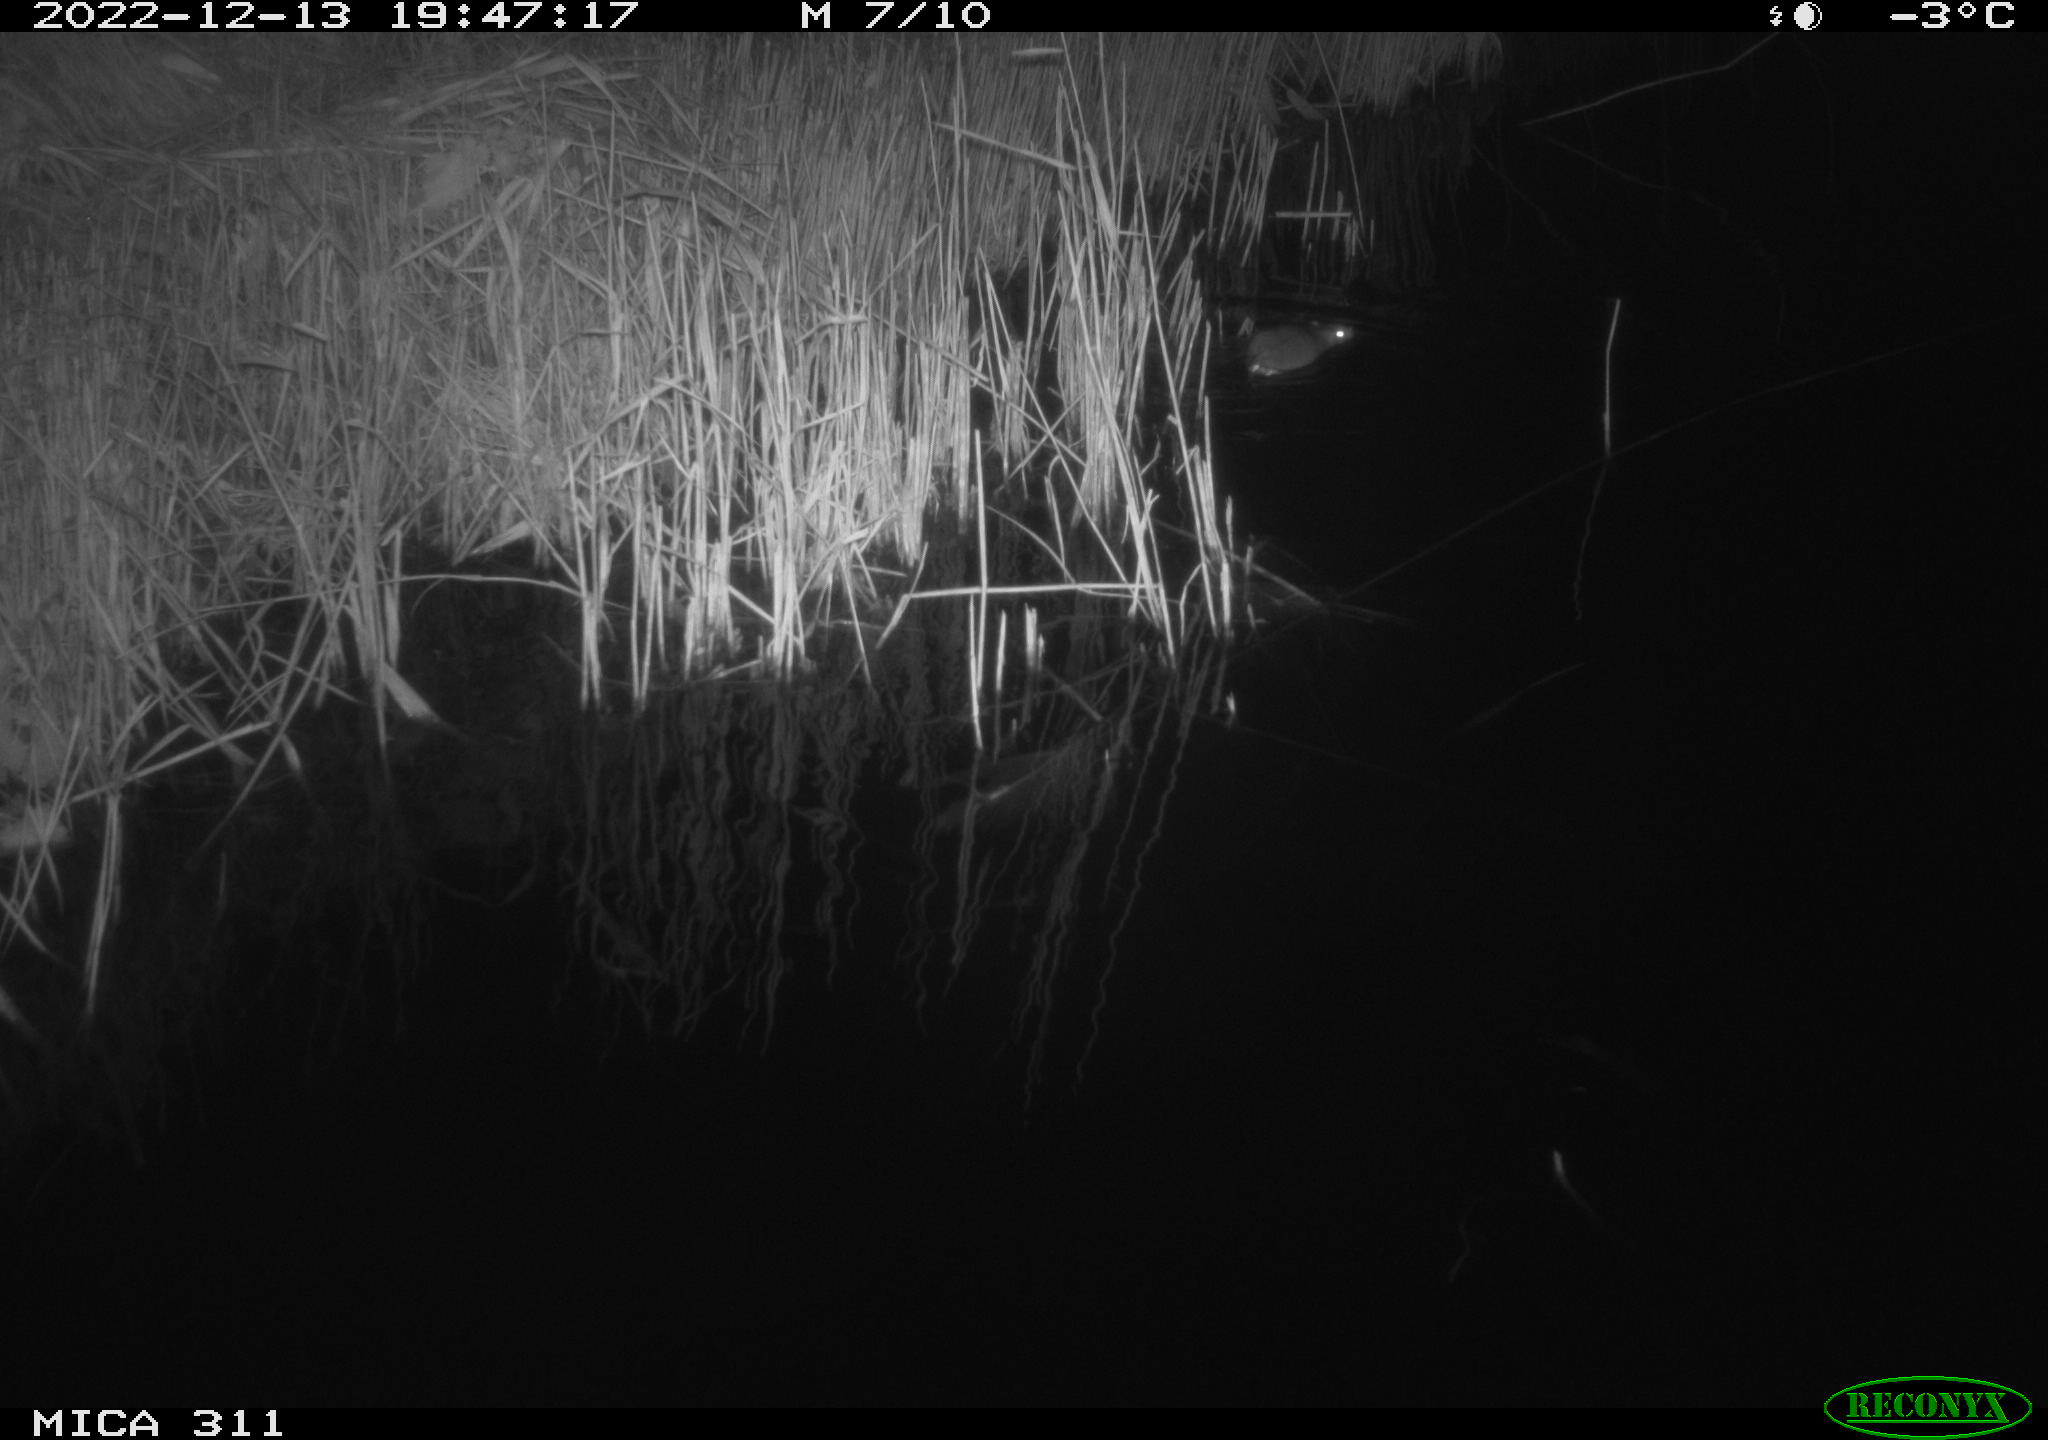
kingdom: Animalia
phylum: Chordata
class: Mammalia
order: Rodentia
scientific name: Rodentia
